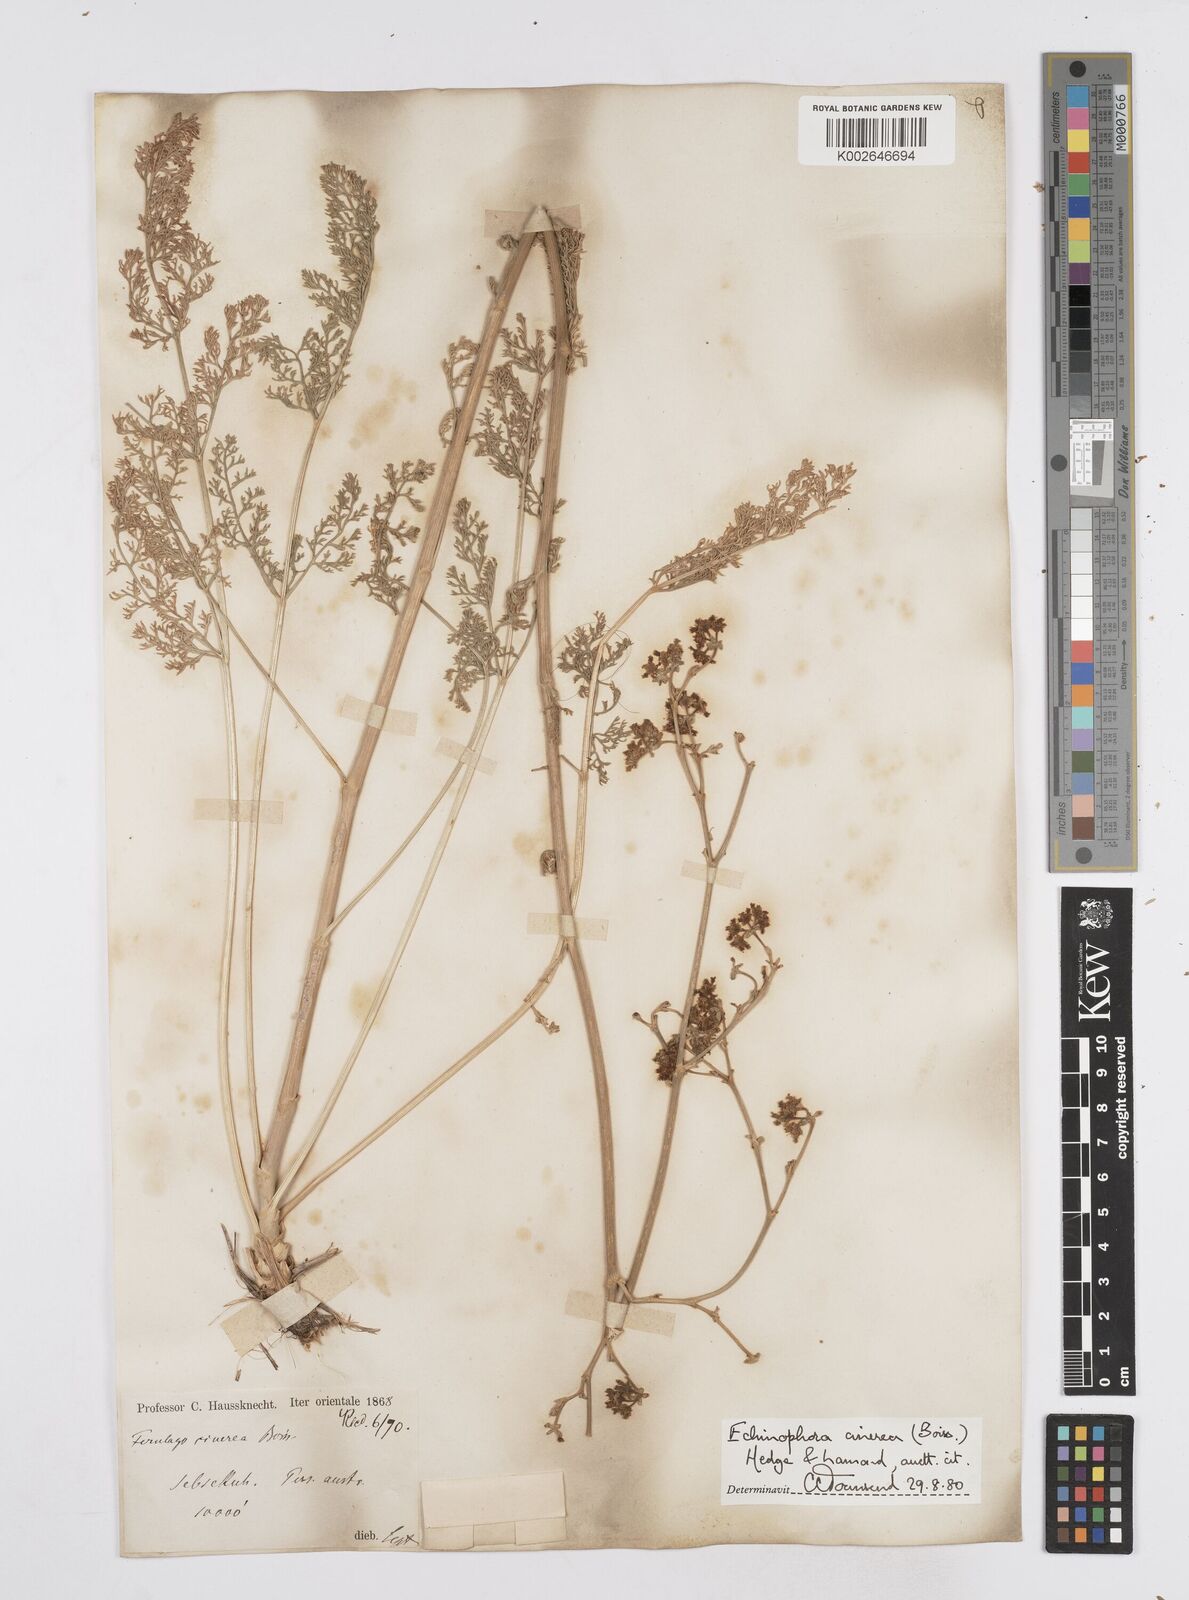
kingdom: Plantae
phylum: Tracheophyta
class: Magnoliopsida
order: Apiales
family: Apiaceae
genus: Thecocarpus
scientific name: Thecocarpus carvifolius
